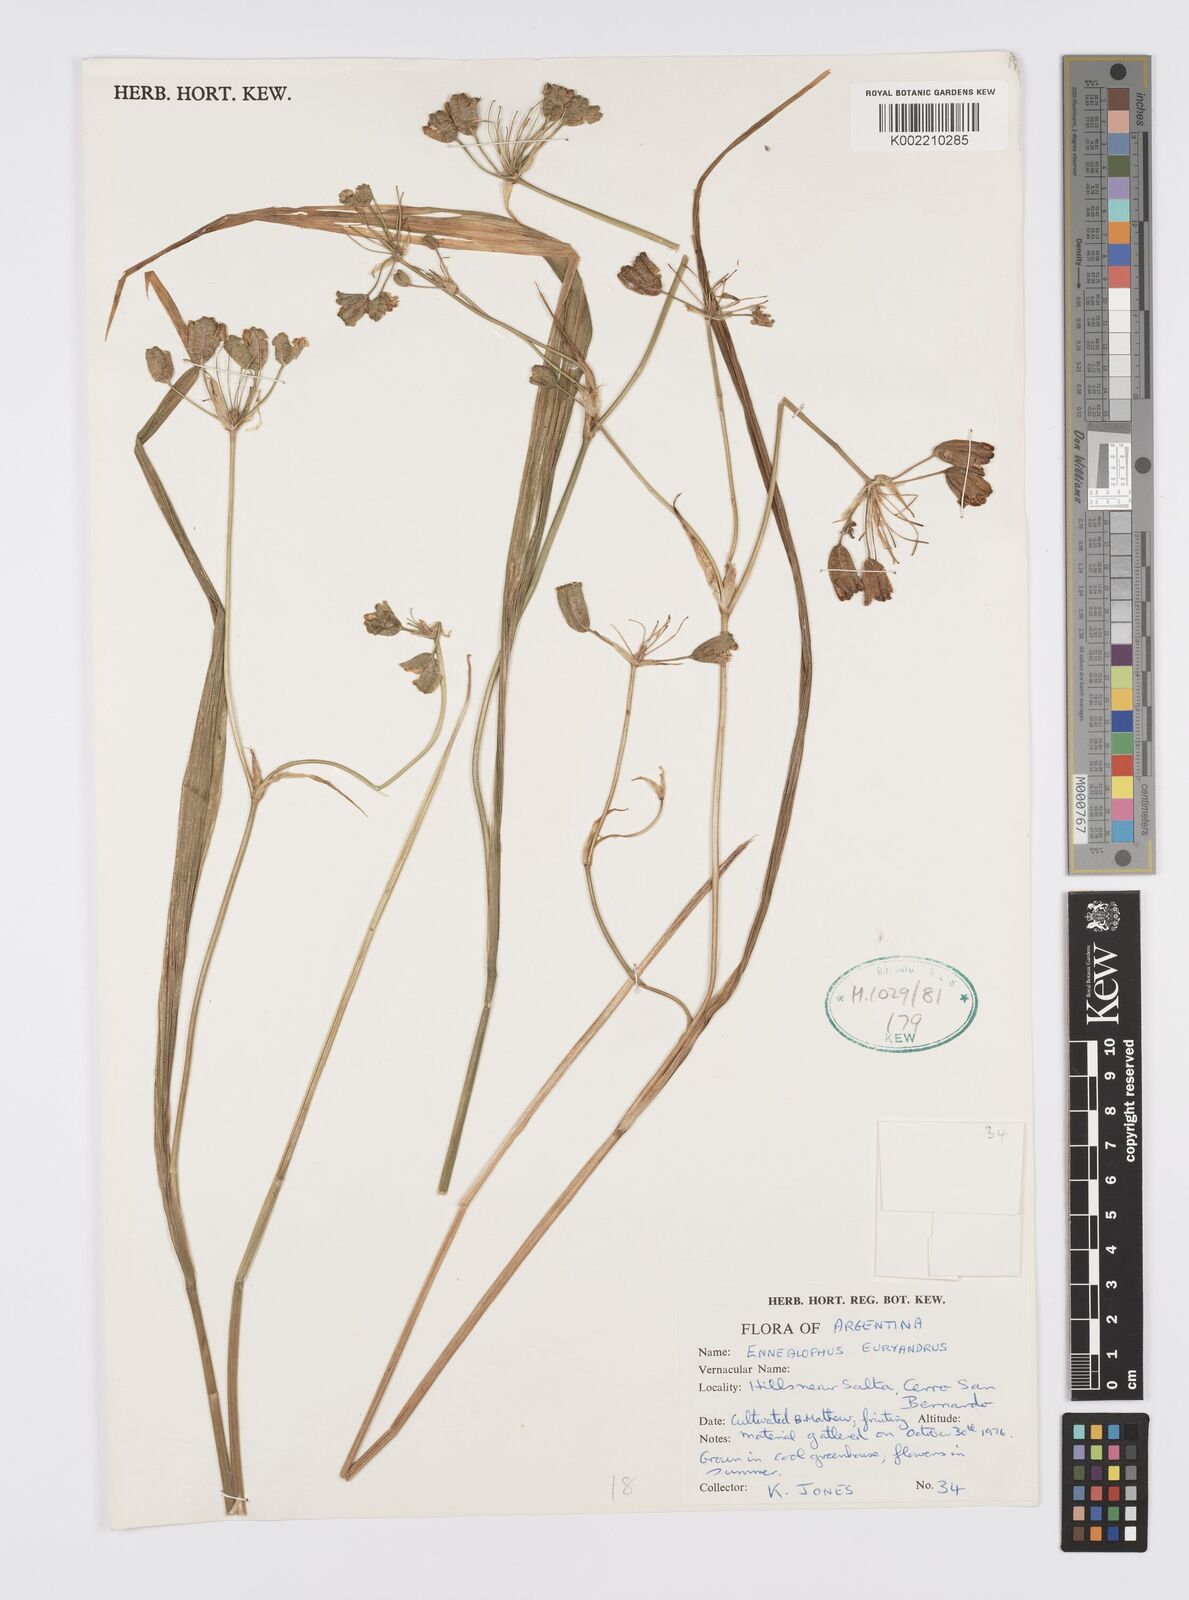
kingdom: Plantae
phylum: Tracheophyta
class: Liliopsida
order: Asparagales
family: Iridaceae
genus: Ennealophus
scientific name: Ennealophus euryandrus
